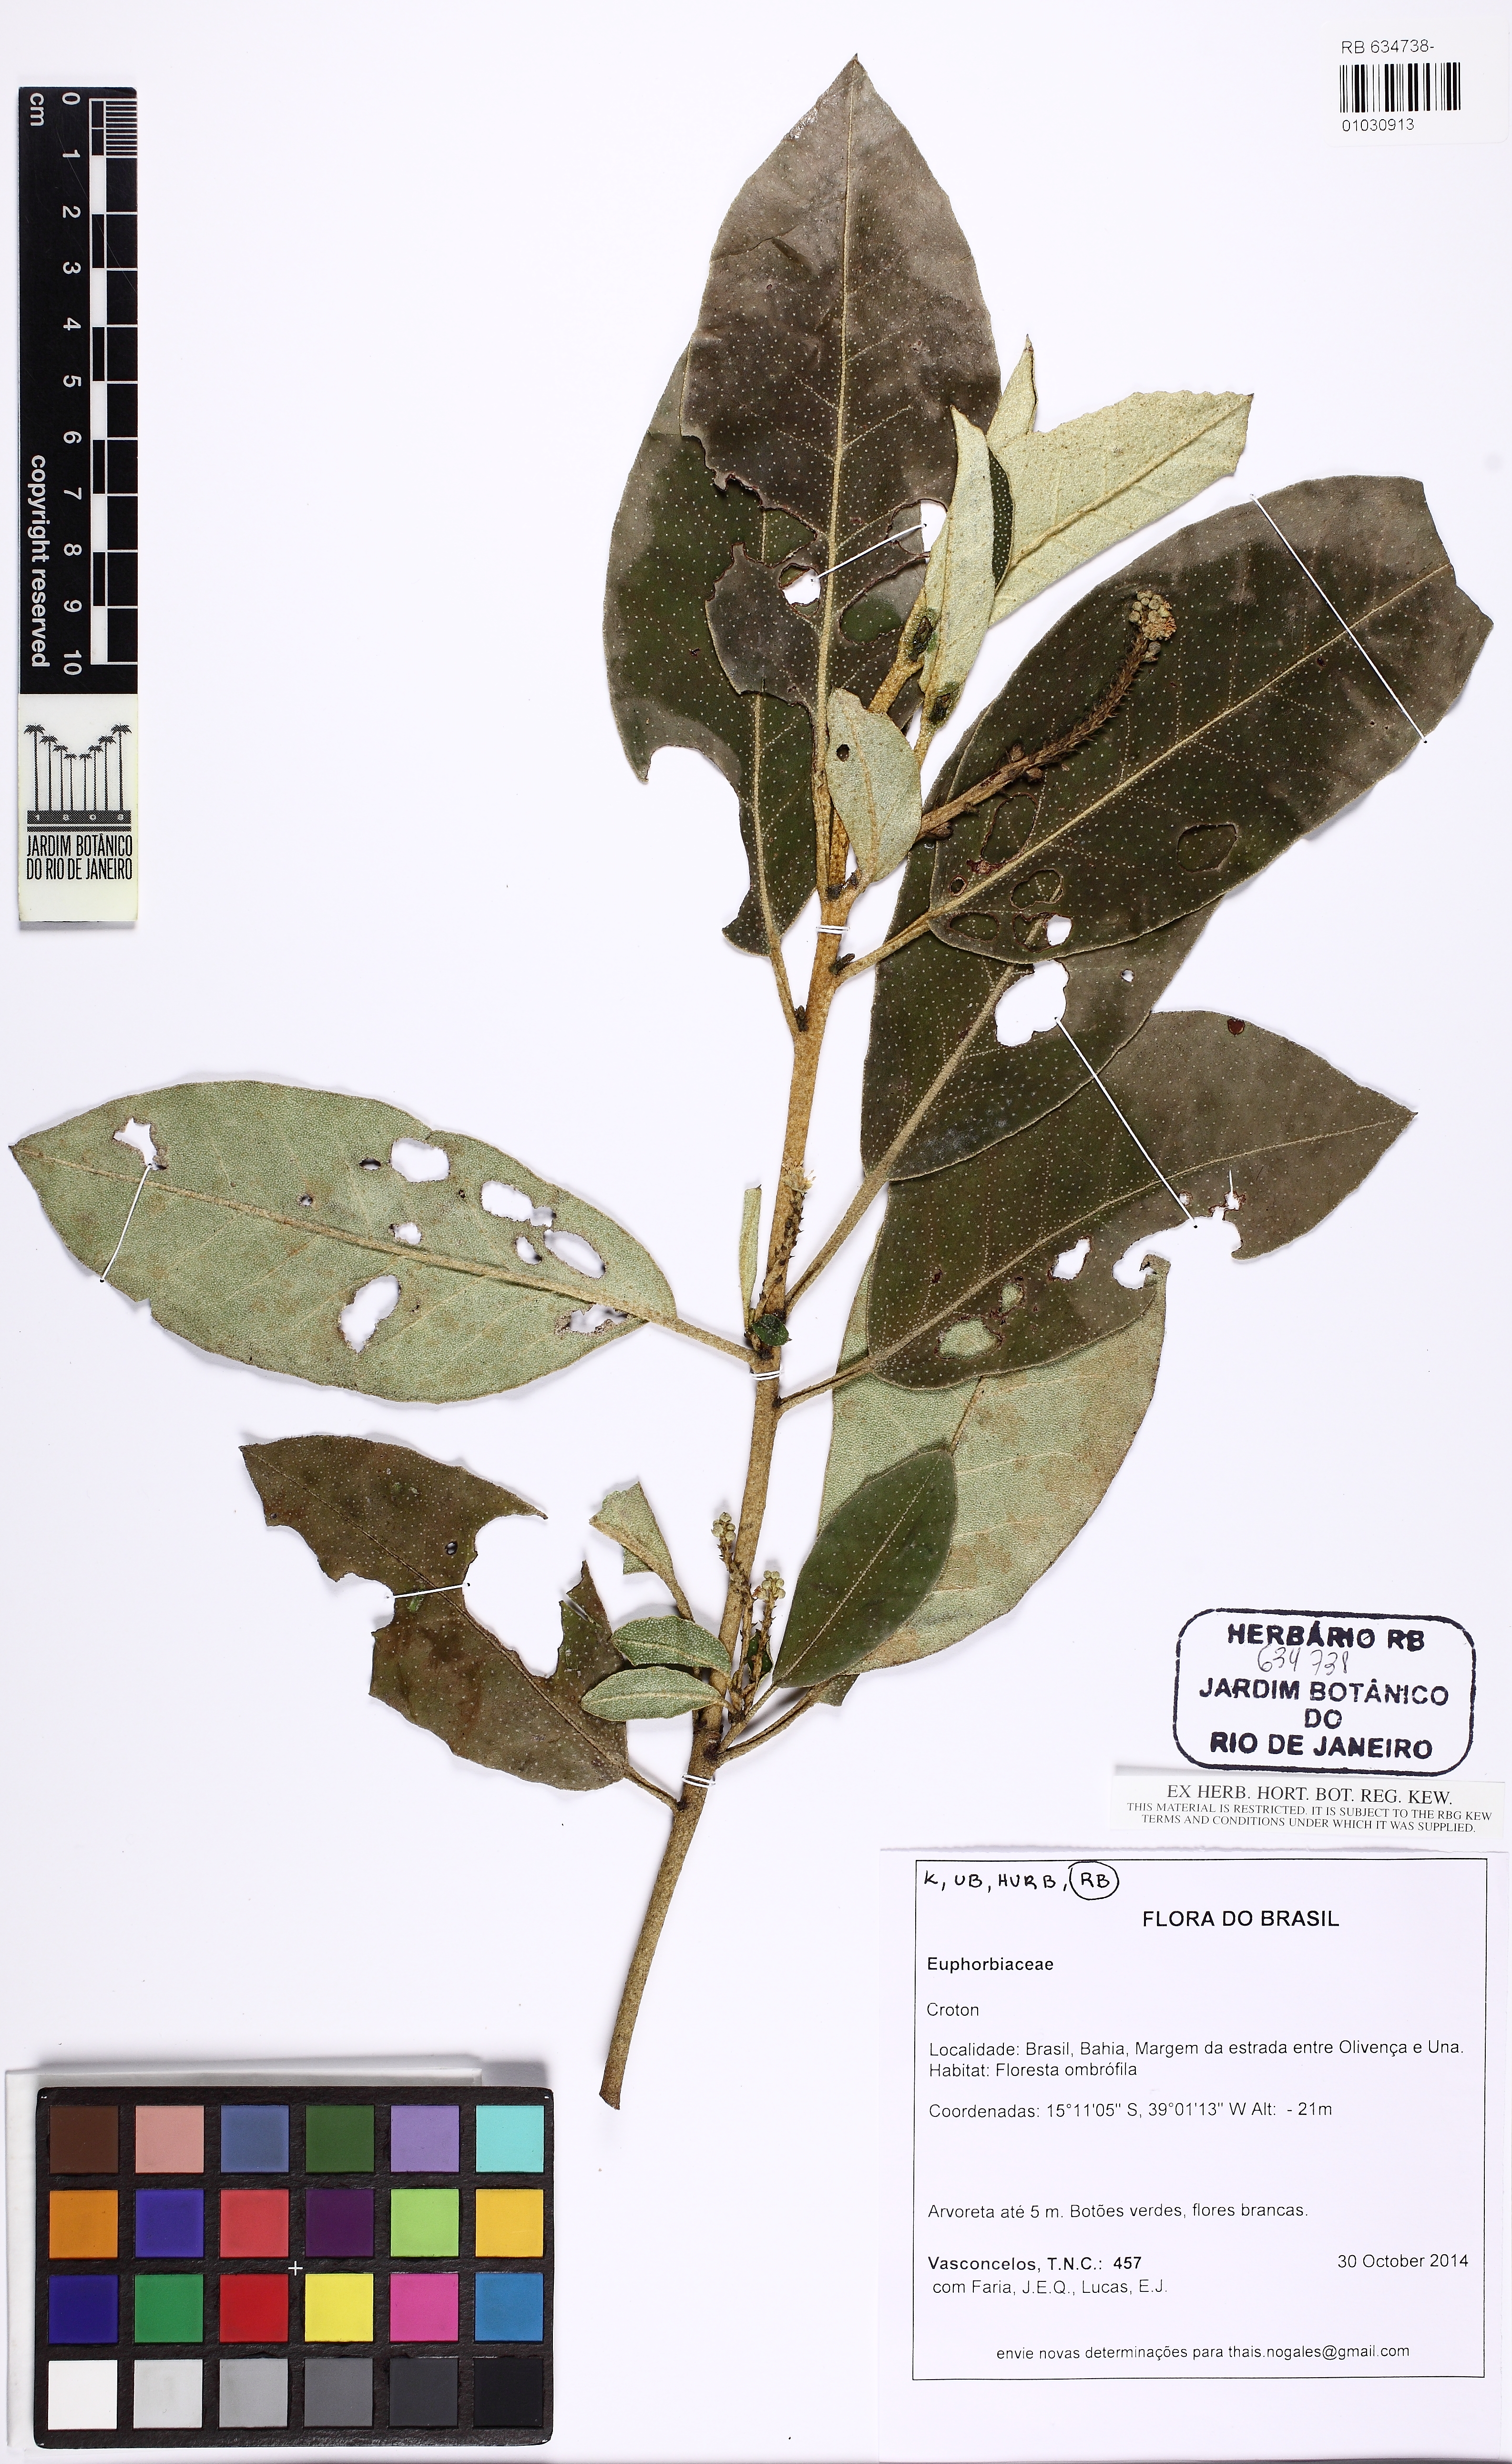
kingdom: Plantae
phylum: Tracheophyta
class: Magnoliopsida
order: Malpighiales
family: Euphorbiaceae
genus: Croton
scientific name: Croton sellowii
